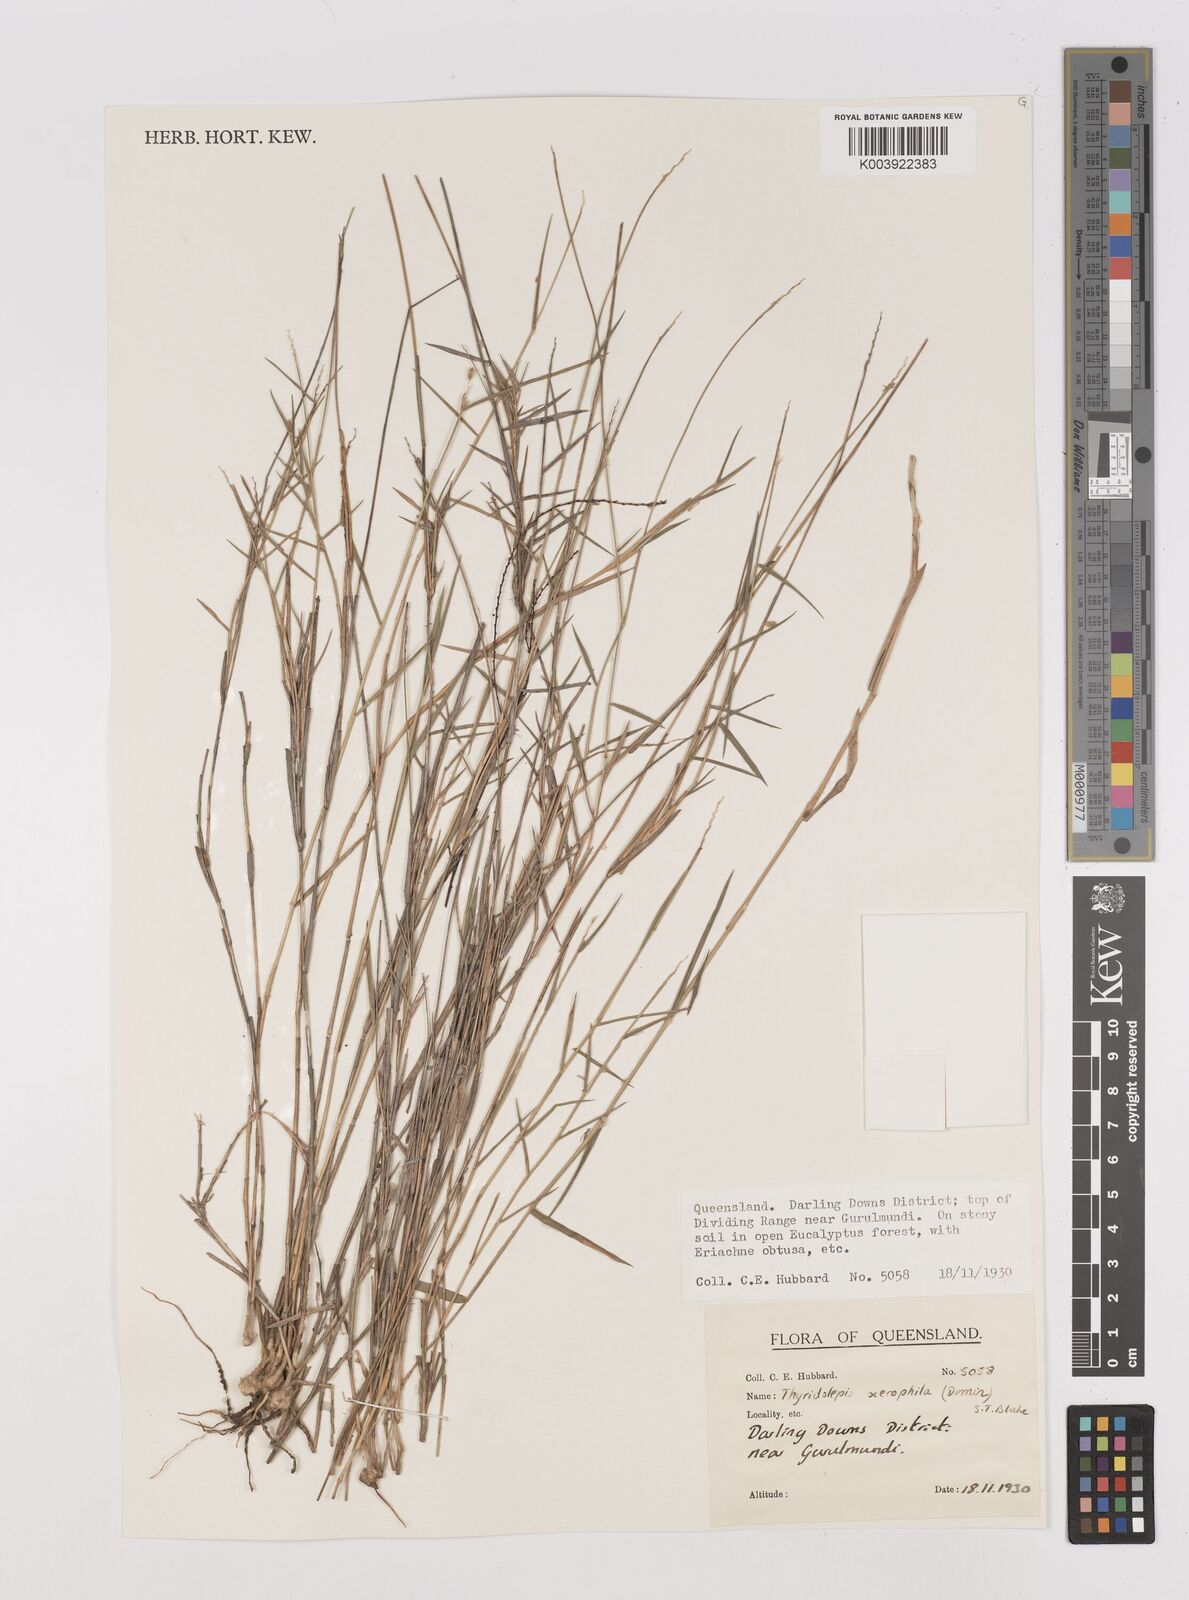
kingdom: Plantae
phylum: Tracheophyta
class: Liliopsida
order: Poales
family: Poaceae
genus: Thyridolepis
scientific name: Thyridolepis xerophila
